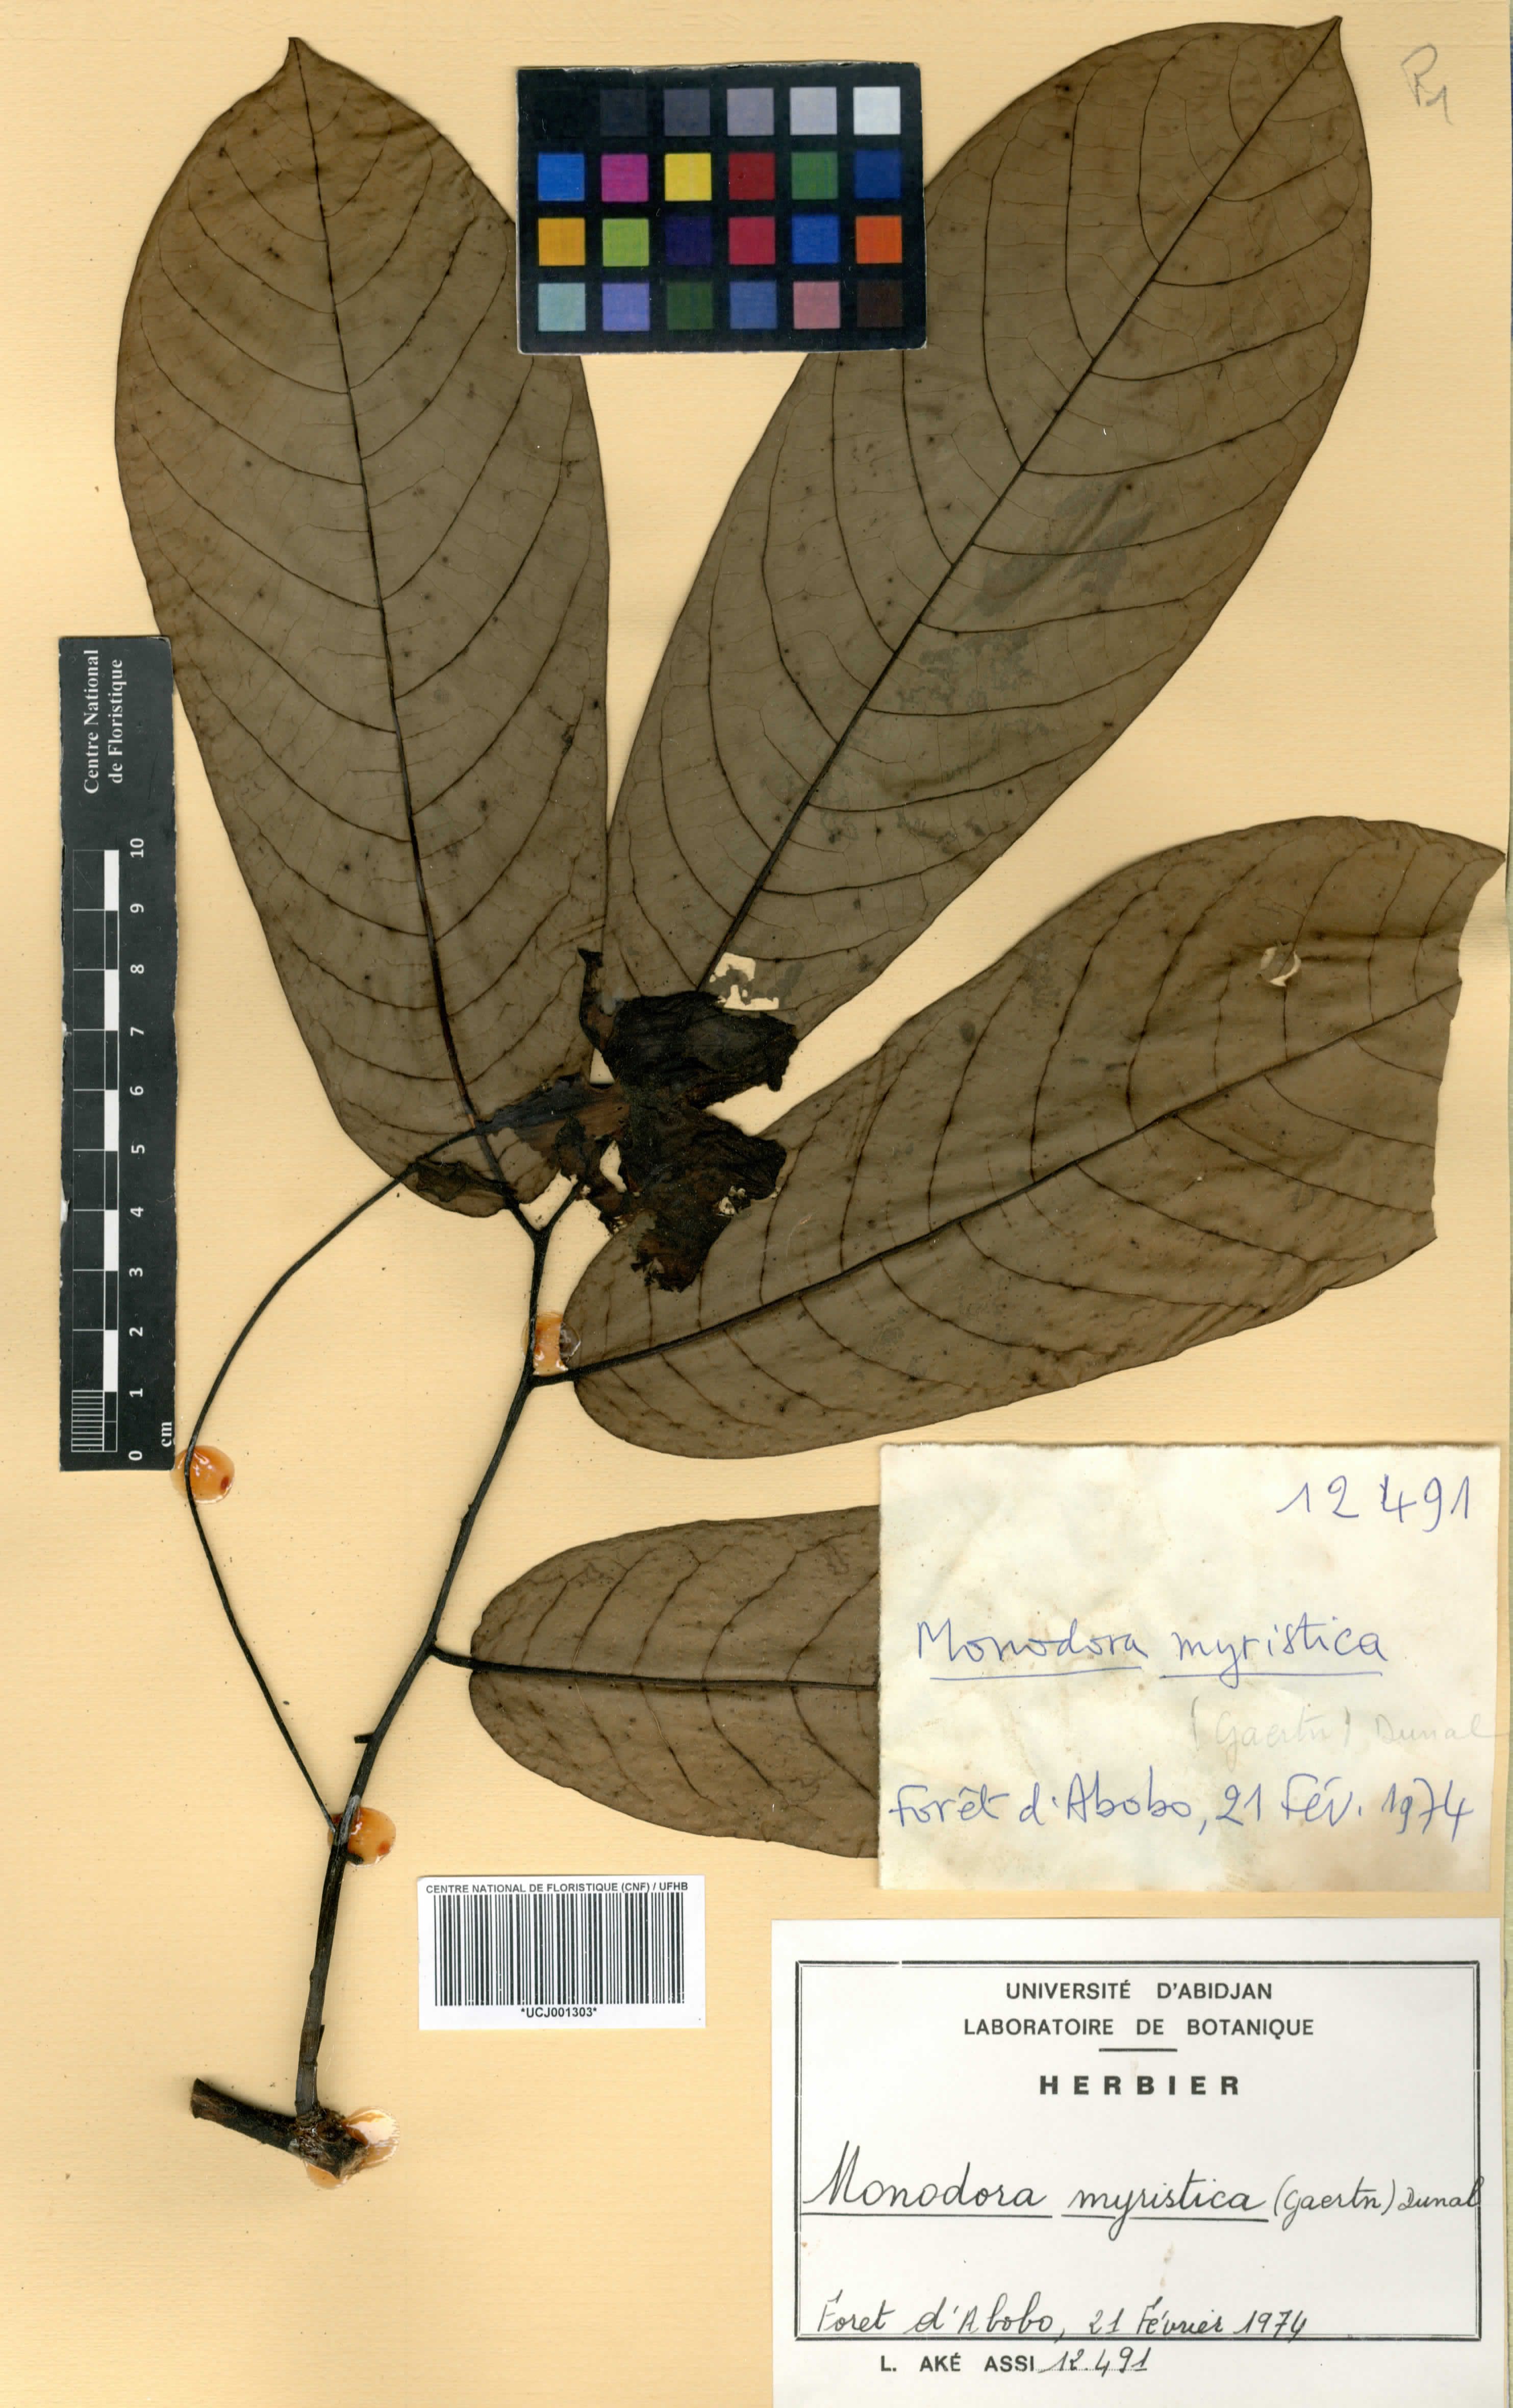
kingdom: Plantae
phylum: Tracheophyta
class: Magnoliopsida
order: Magnoliales
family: Annonaceae
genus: Monodora
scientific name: Monodora myristica
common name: African nutmeg
